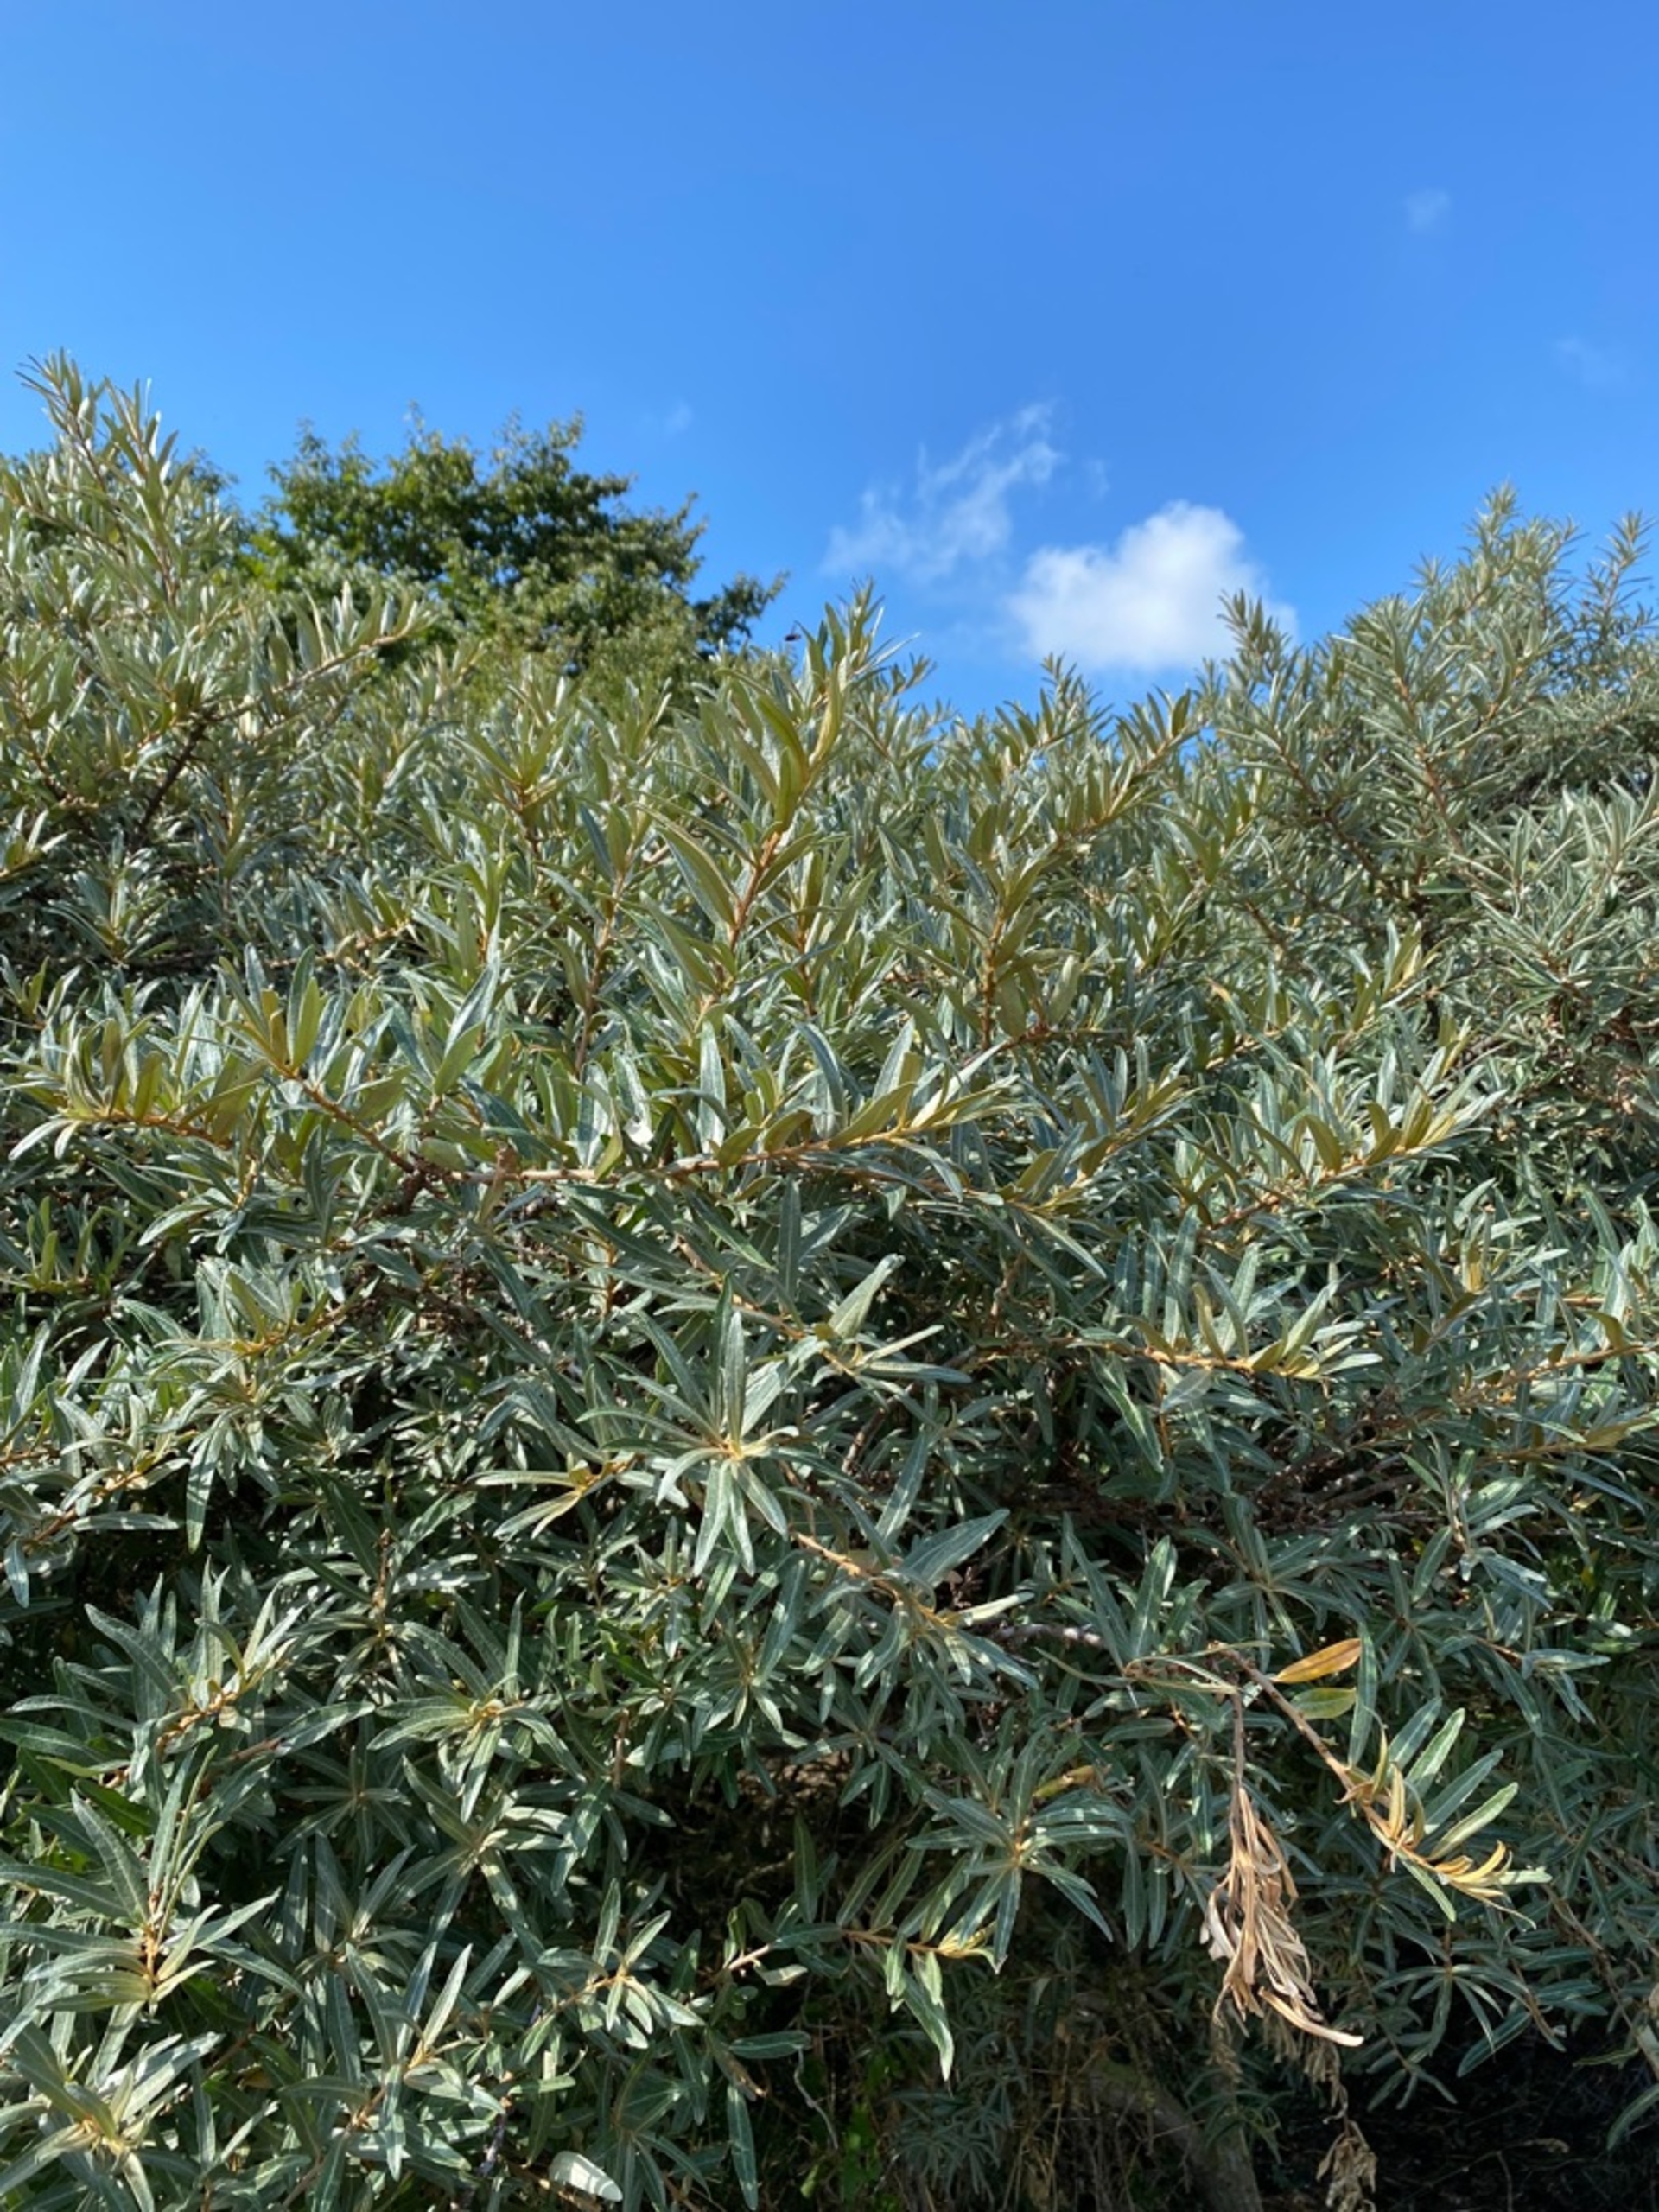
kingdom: Plantae
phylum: Tracheophyta
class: Magnoliopsida
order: Rosales
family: Elaeagnaceae
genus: Hippophae
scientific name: Hippophae rhamnoides
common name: Havtorn
